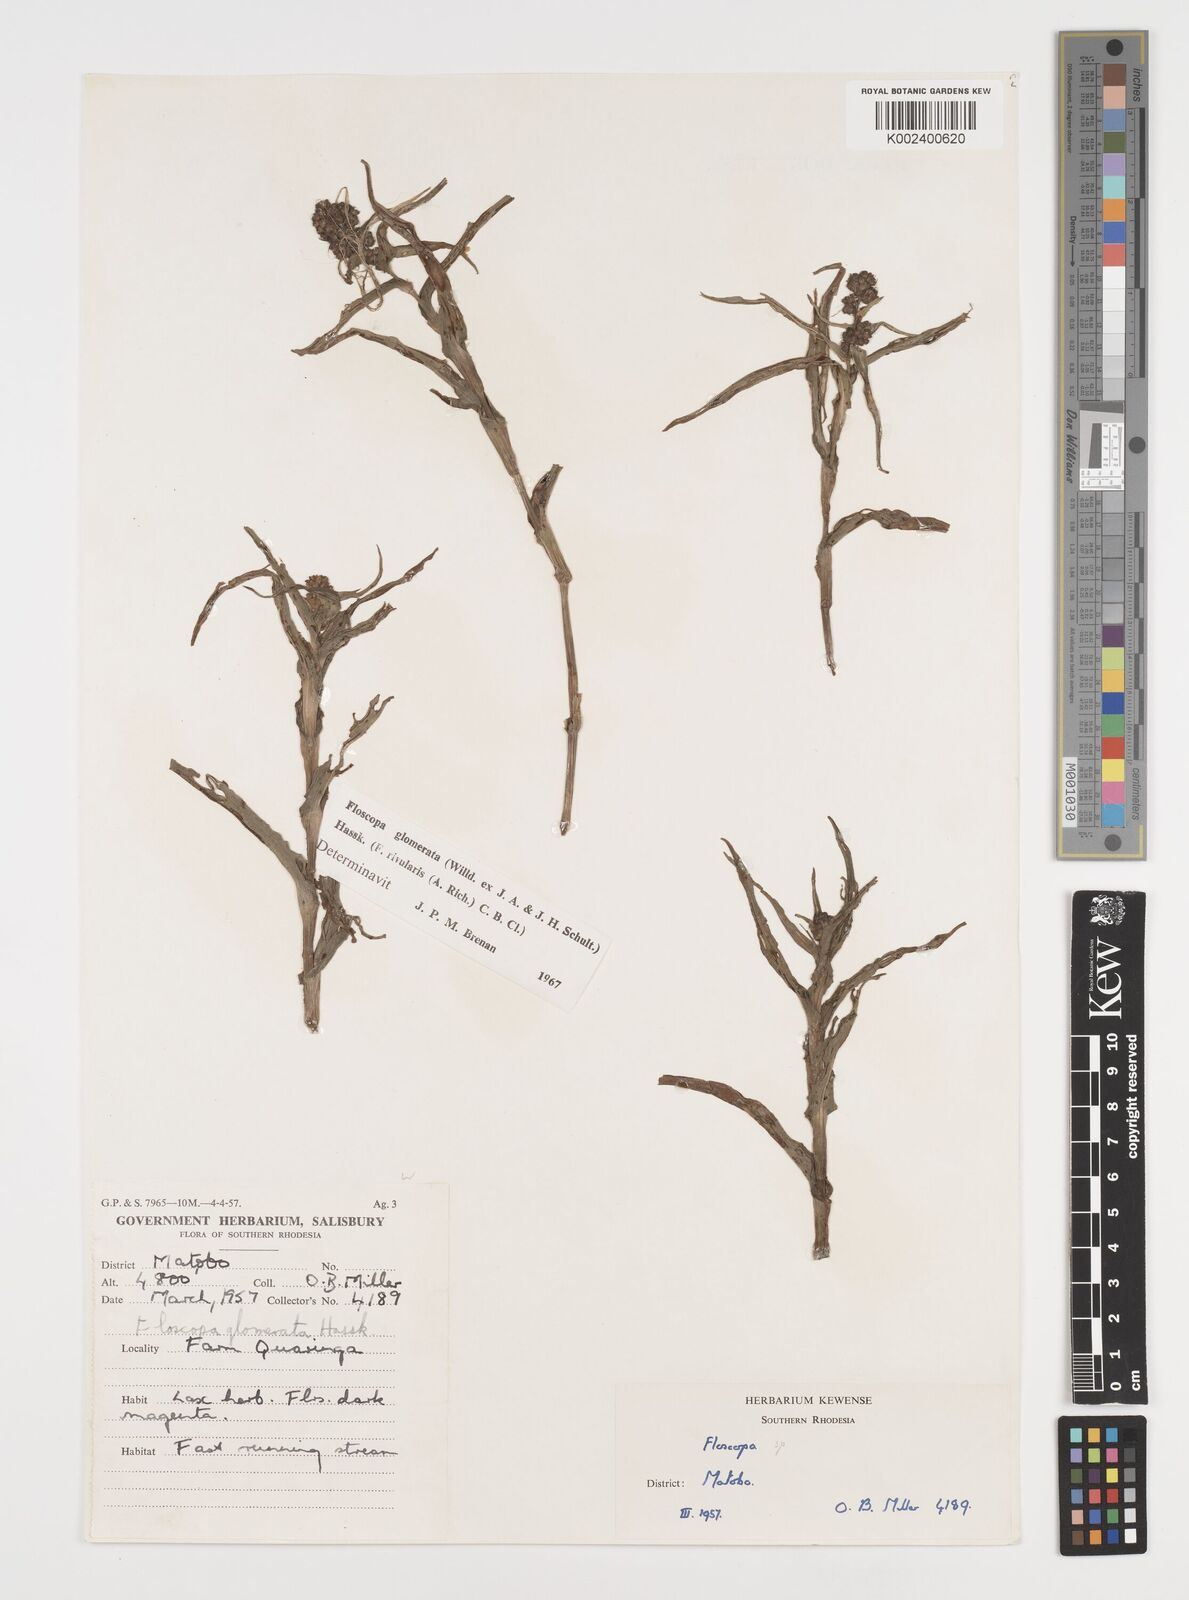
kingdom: Plantae
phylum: Tracheophyta
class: Liliopsida
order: Commelinales
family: Commelinaceae
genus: Floscopa
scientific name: Floscopa glomerata
